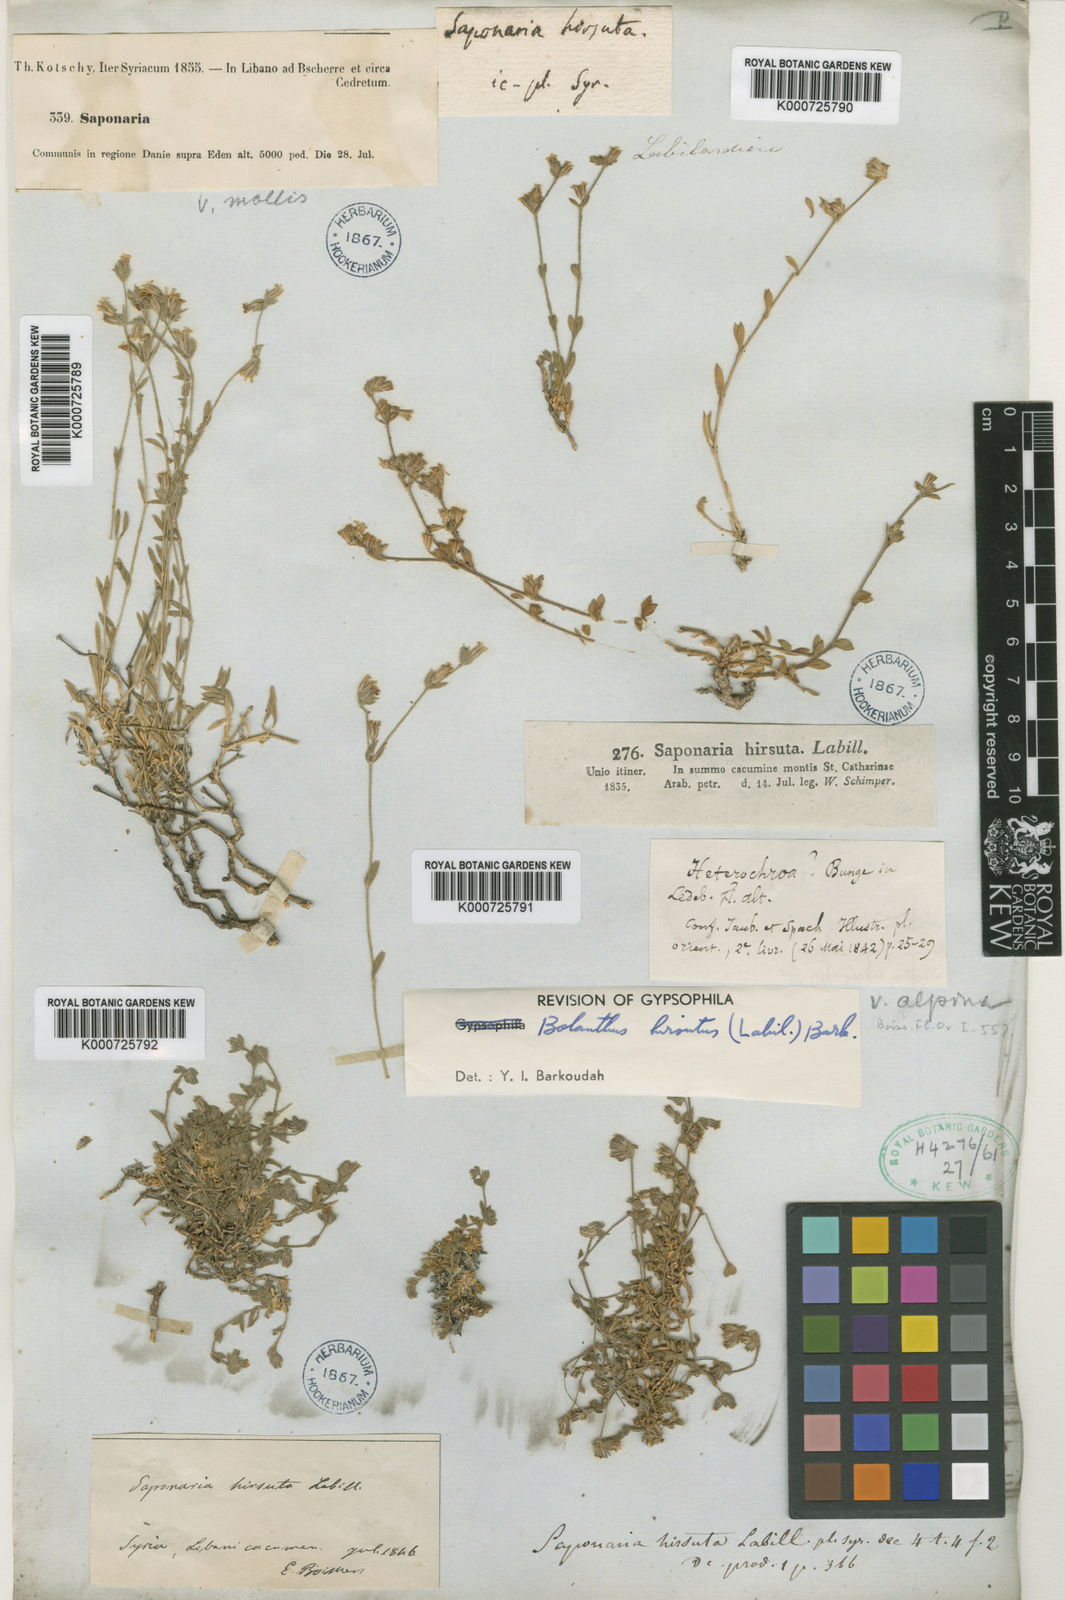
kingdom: Plantae
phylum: Tracheophyta
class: Magnoliopsida
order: Caryophyllales
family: Caryophyllaceae
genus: Bolanthus
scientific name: Bolanthus hirsutus
